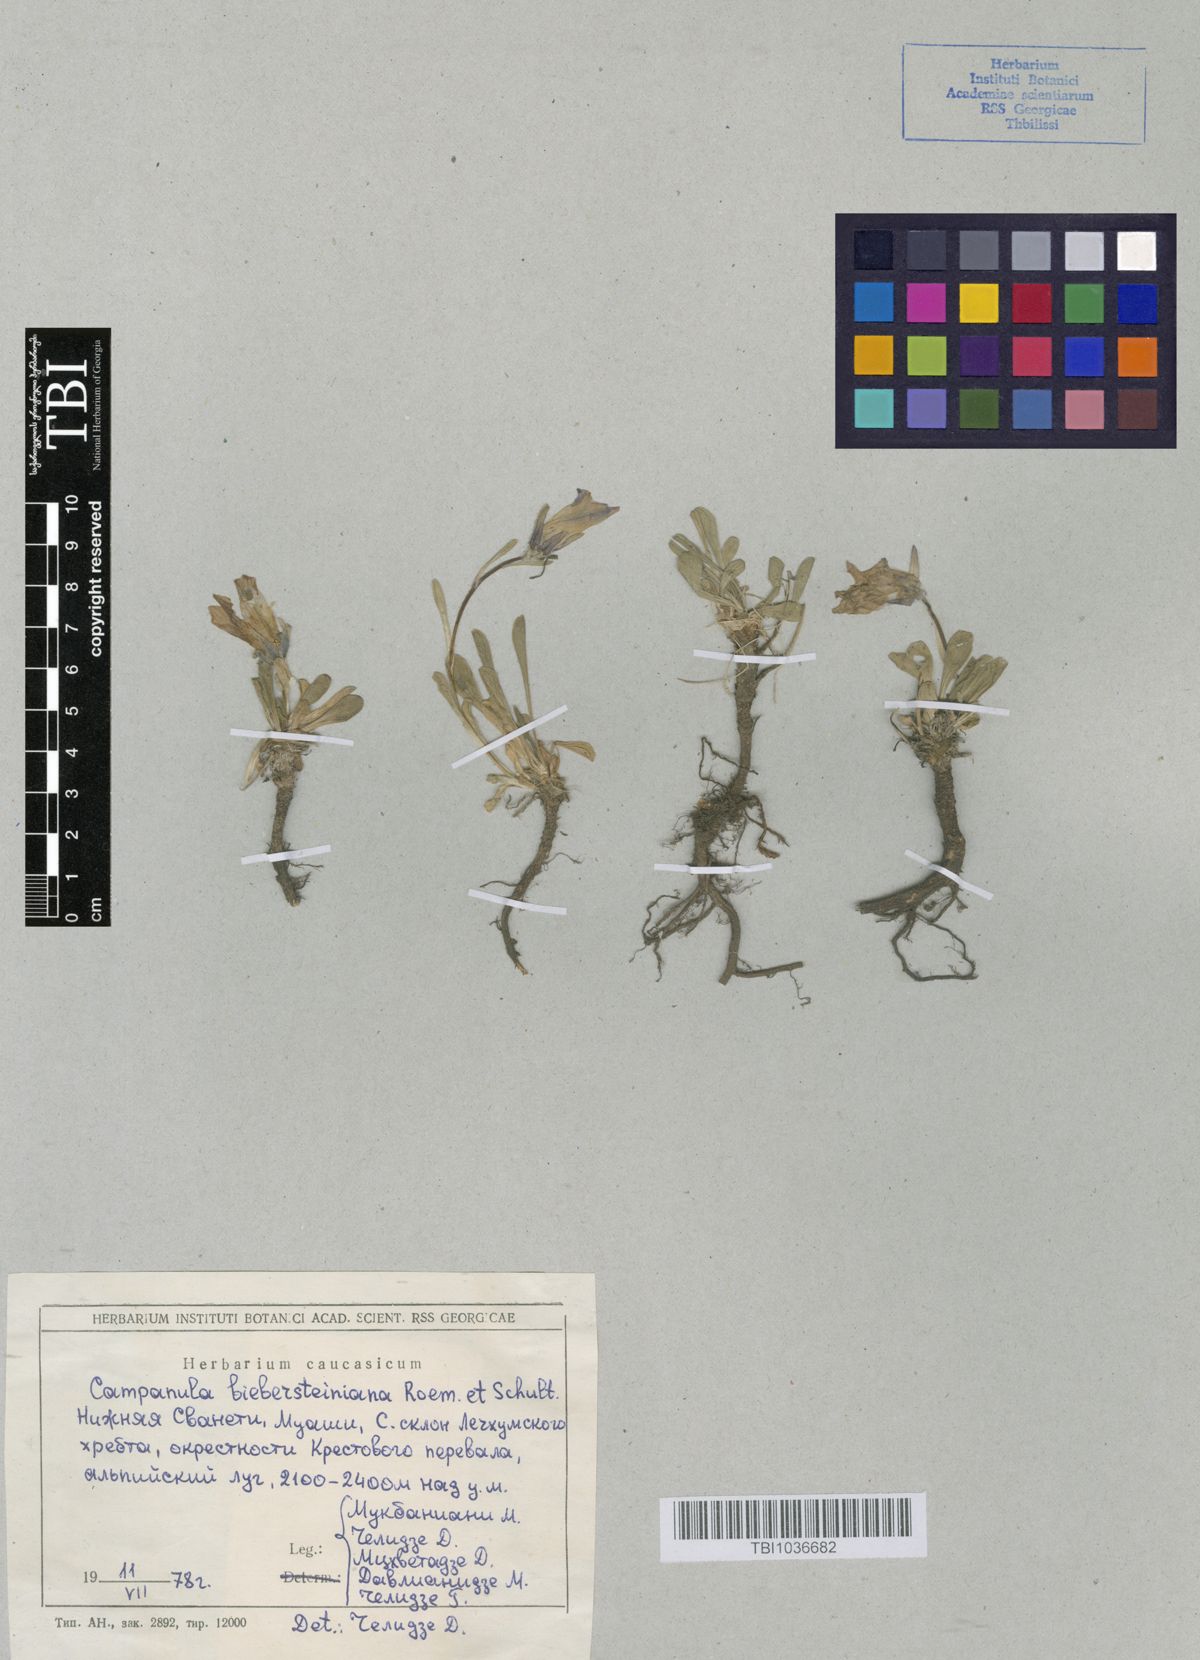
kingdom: Plantae
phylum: Tracheophyta
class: Magnoliopsida
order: Asterales
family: Campanulaceae
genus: Campanula
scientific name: Campanula tridentata
